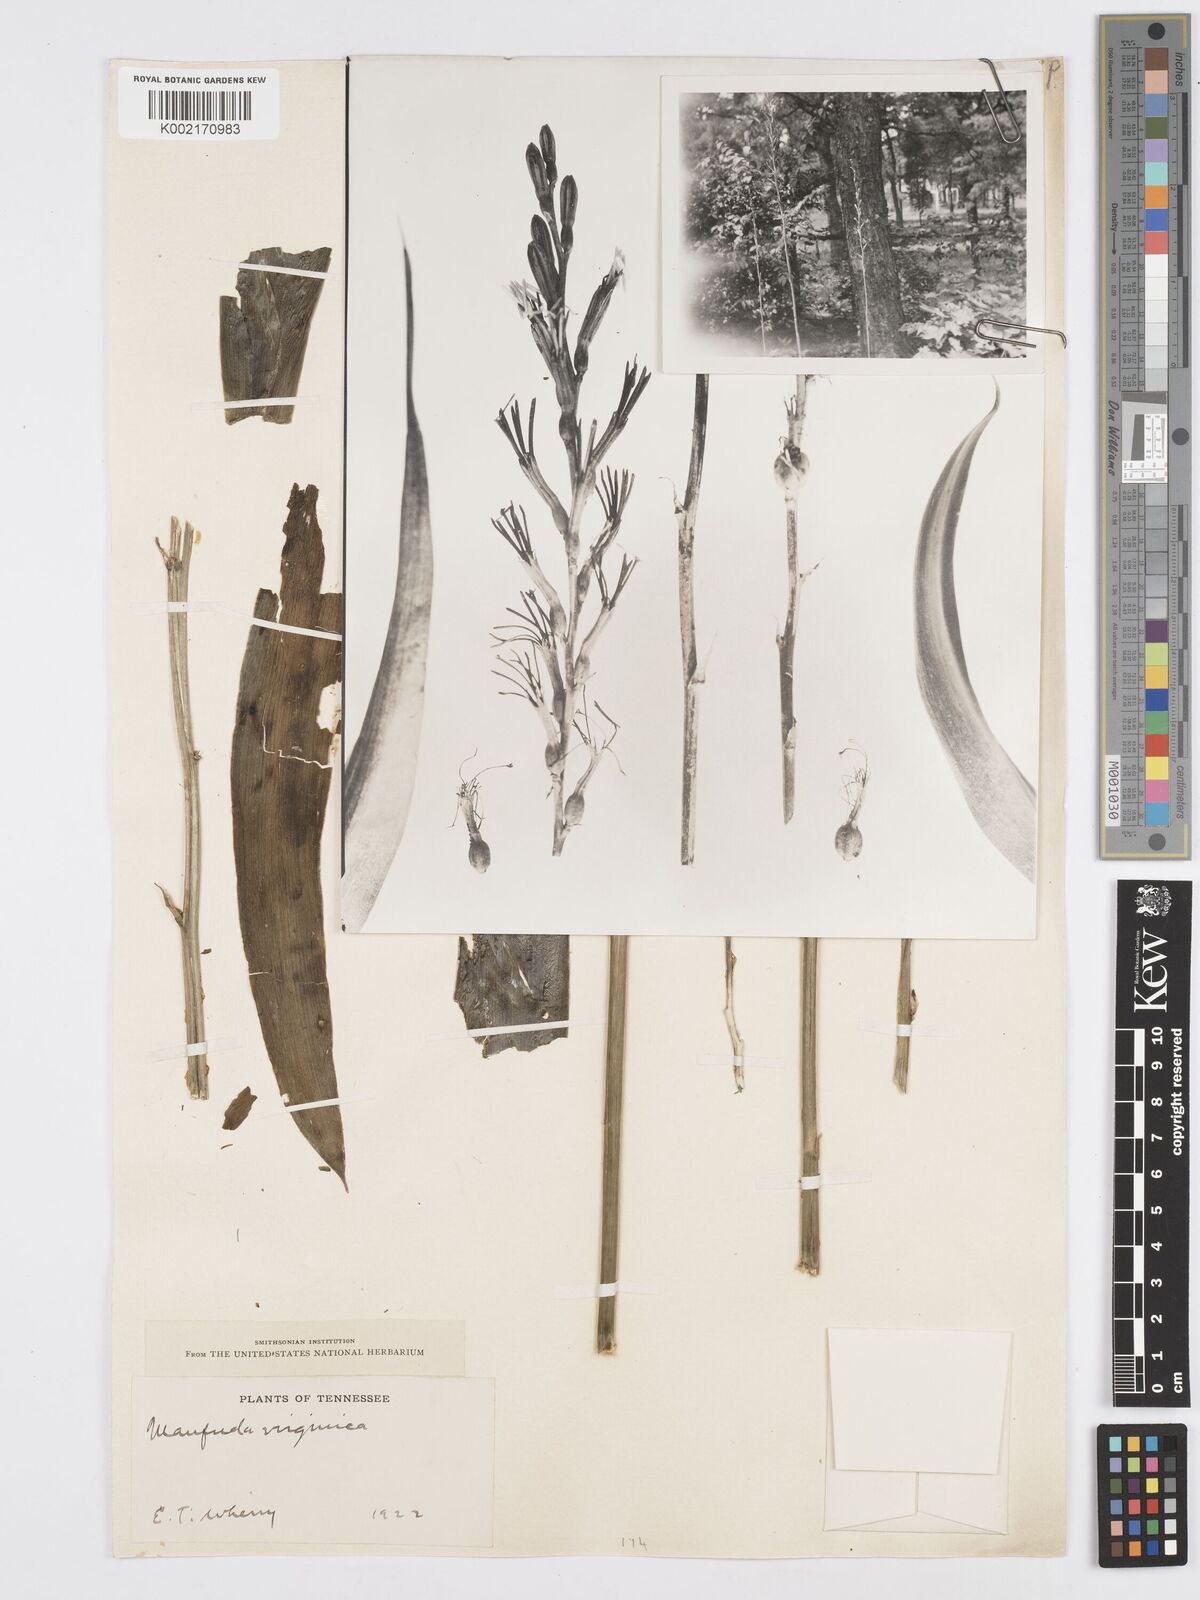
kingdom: Plantae
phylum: Tracheophyta
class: Liliopsida
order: Asparagales
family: Asparagaceae
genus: Agave
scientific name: Agave virginica
